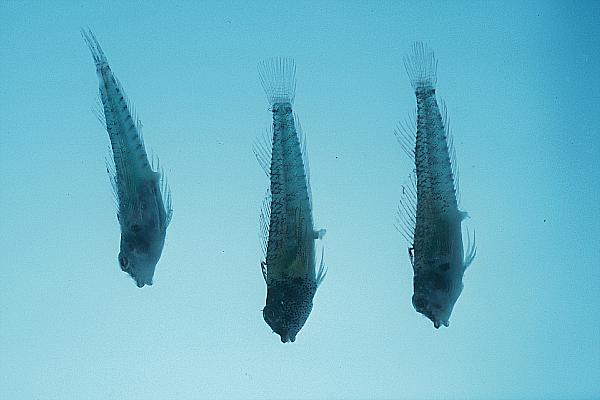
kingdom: Animalia
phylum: Chordata
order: Perciformes
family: Tripterygiidae
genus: Enneapterygius
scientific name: Enneapterygius abeli
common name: Yellow triplefin
